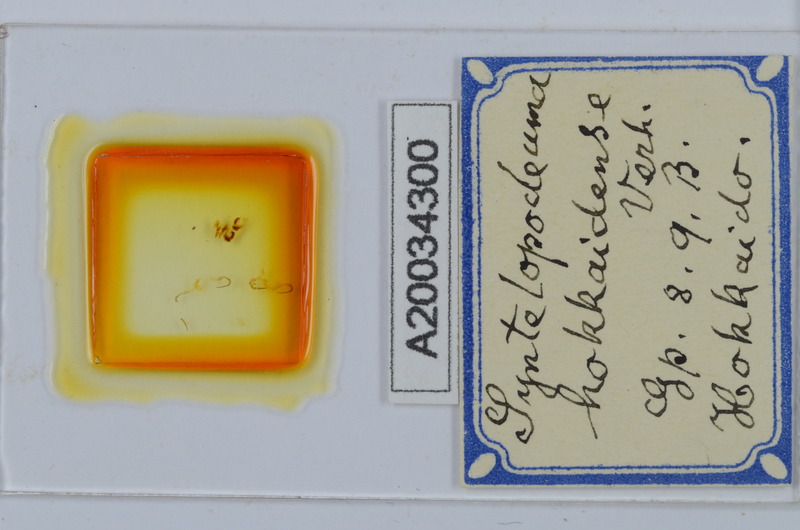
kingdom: Animalia
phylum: Arthropoda
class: Diplopoda
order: Chordeumatida
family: Diplomaragnidae
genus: Diplomaragna
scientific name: Diplomaragna hokkaidensis
